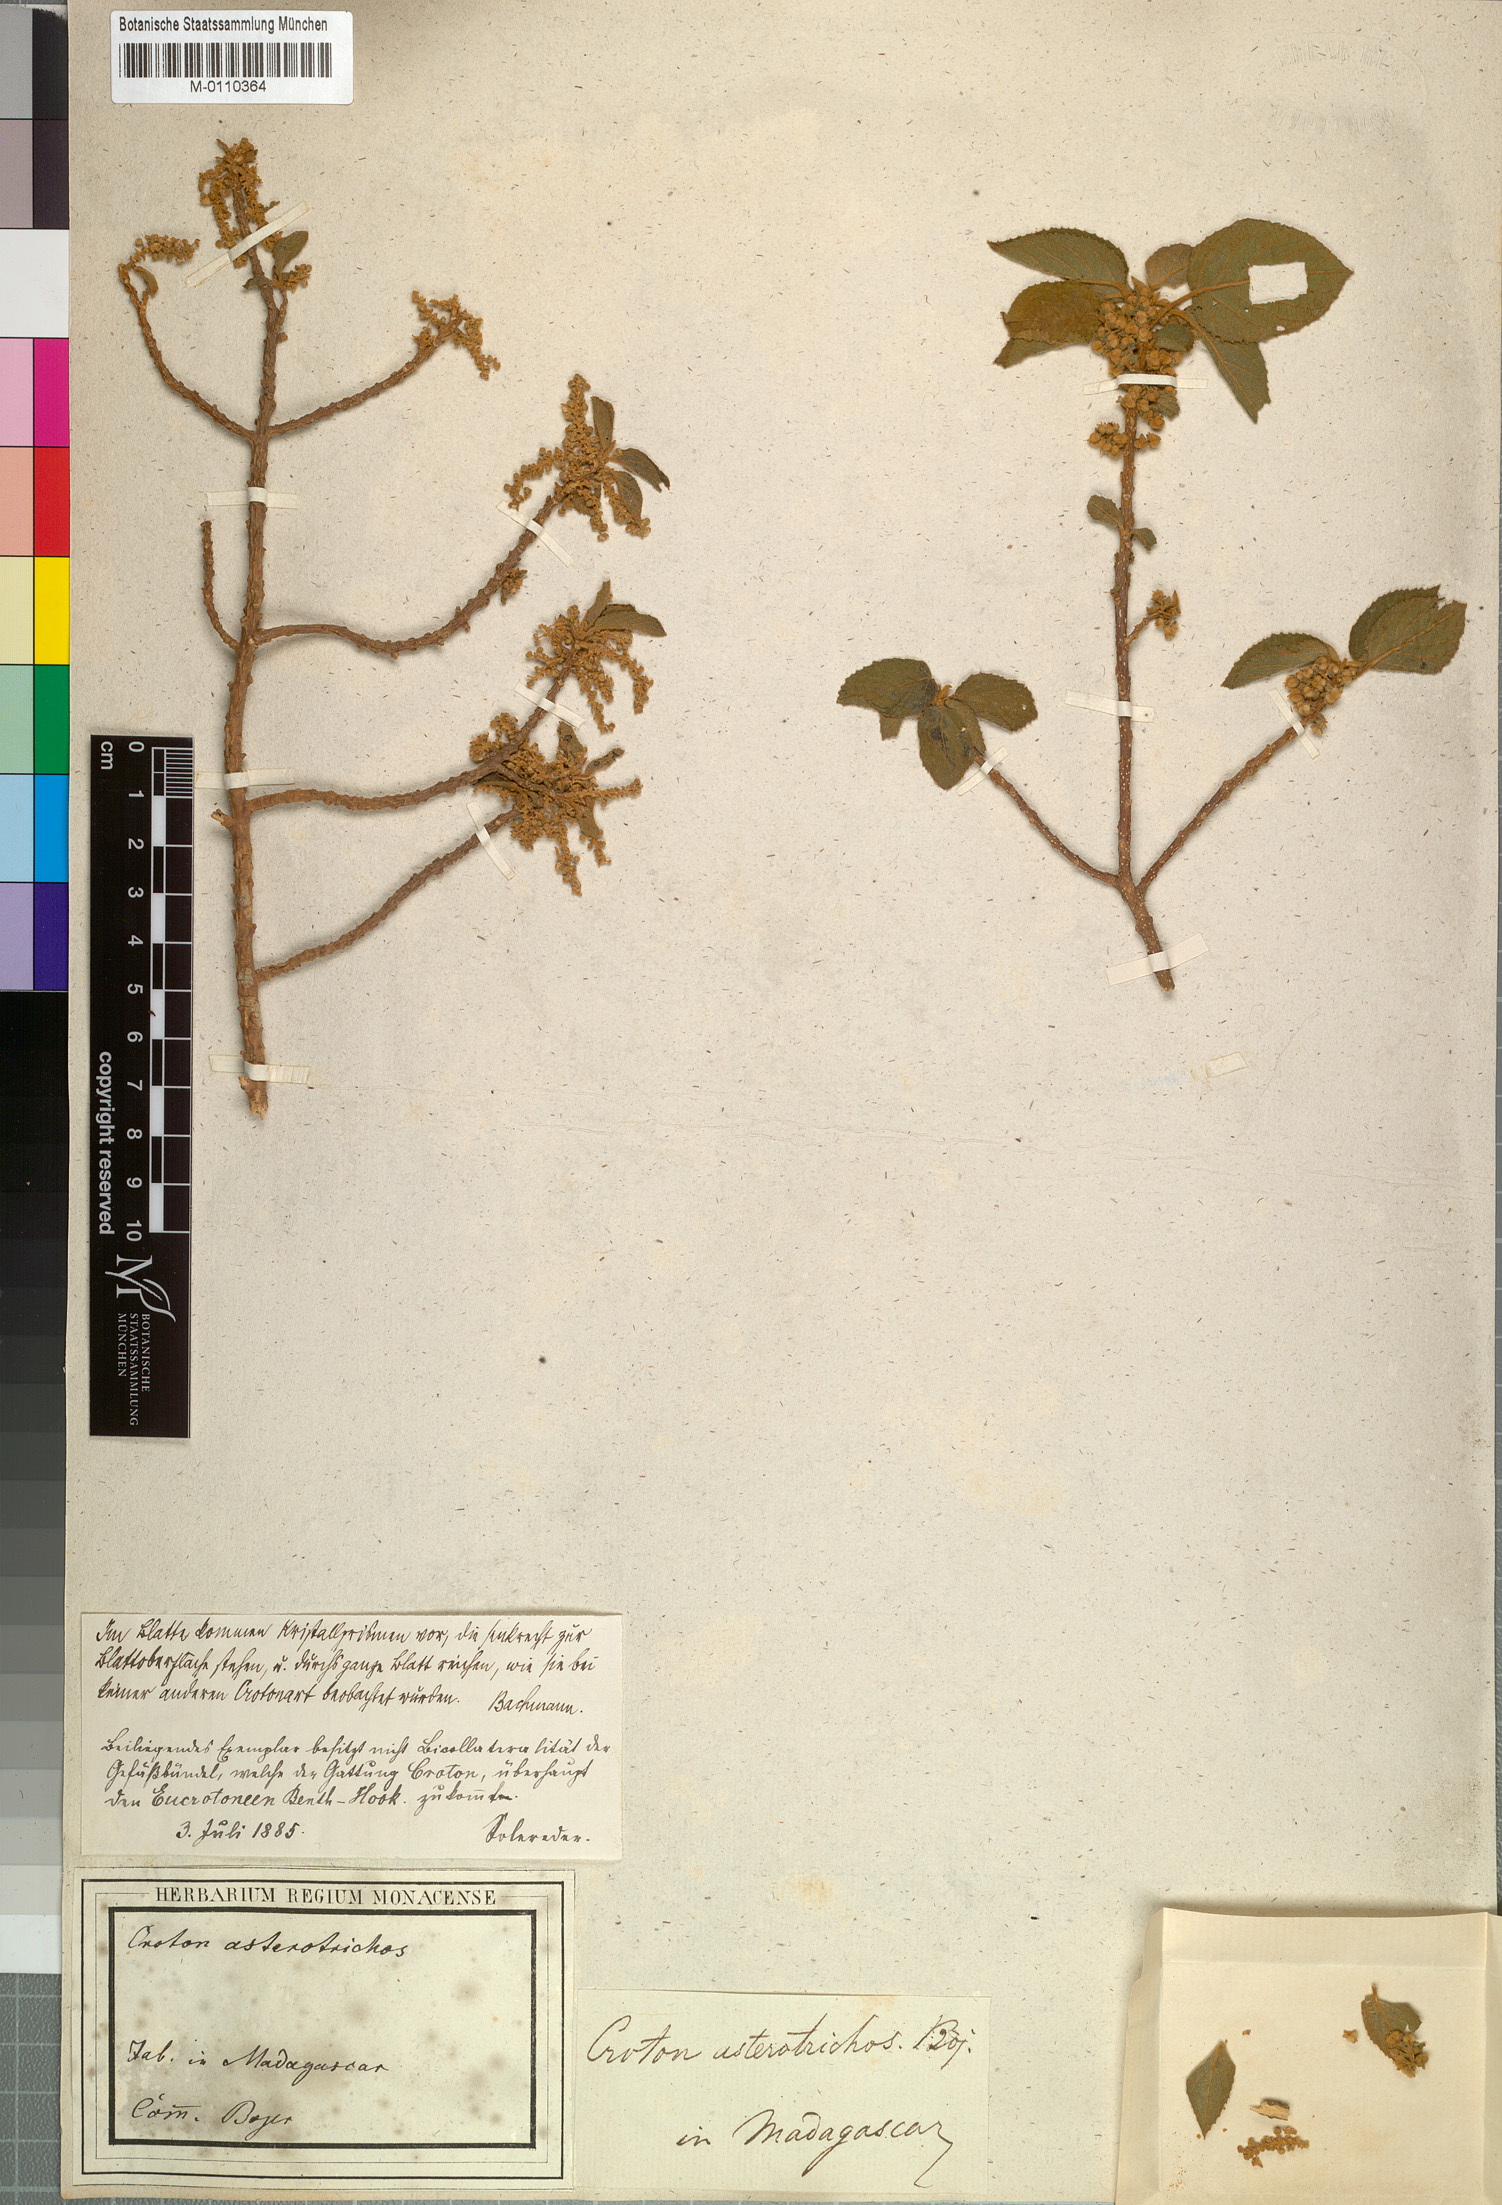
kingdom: Plantae
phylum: Tracheophyta
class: Magnoliopsida
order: Malpighiales
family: Euphorbiaceae
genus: Lobanilia
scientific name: Lobanilia hirtella
